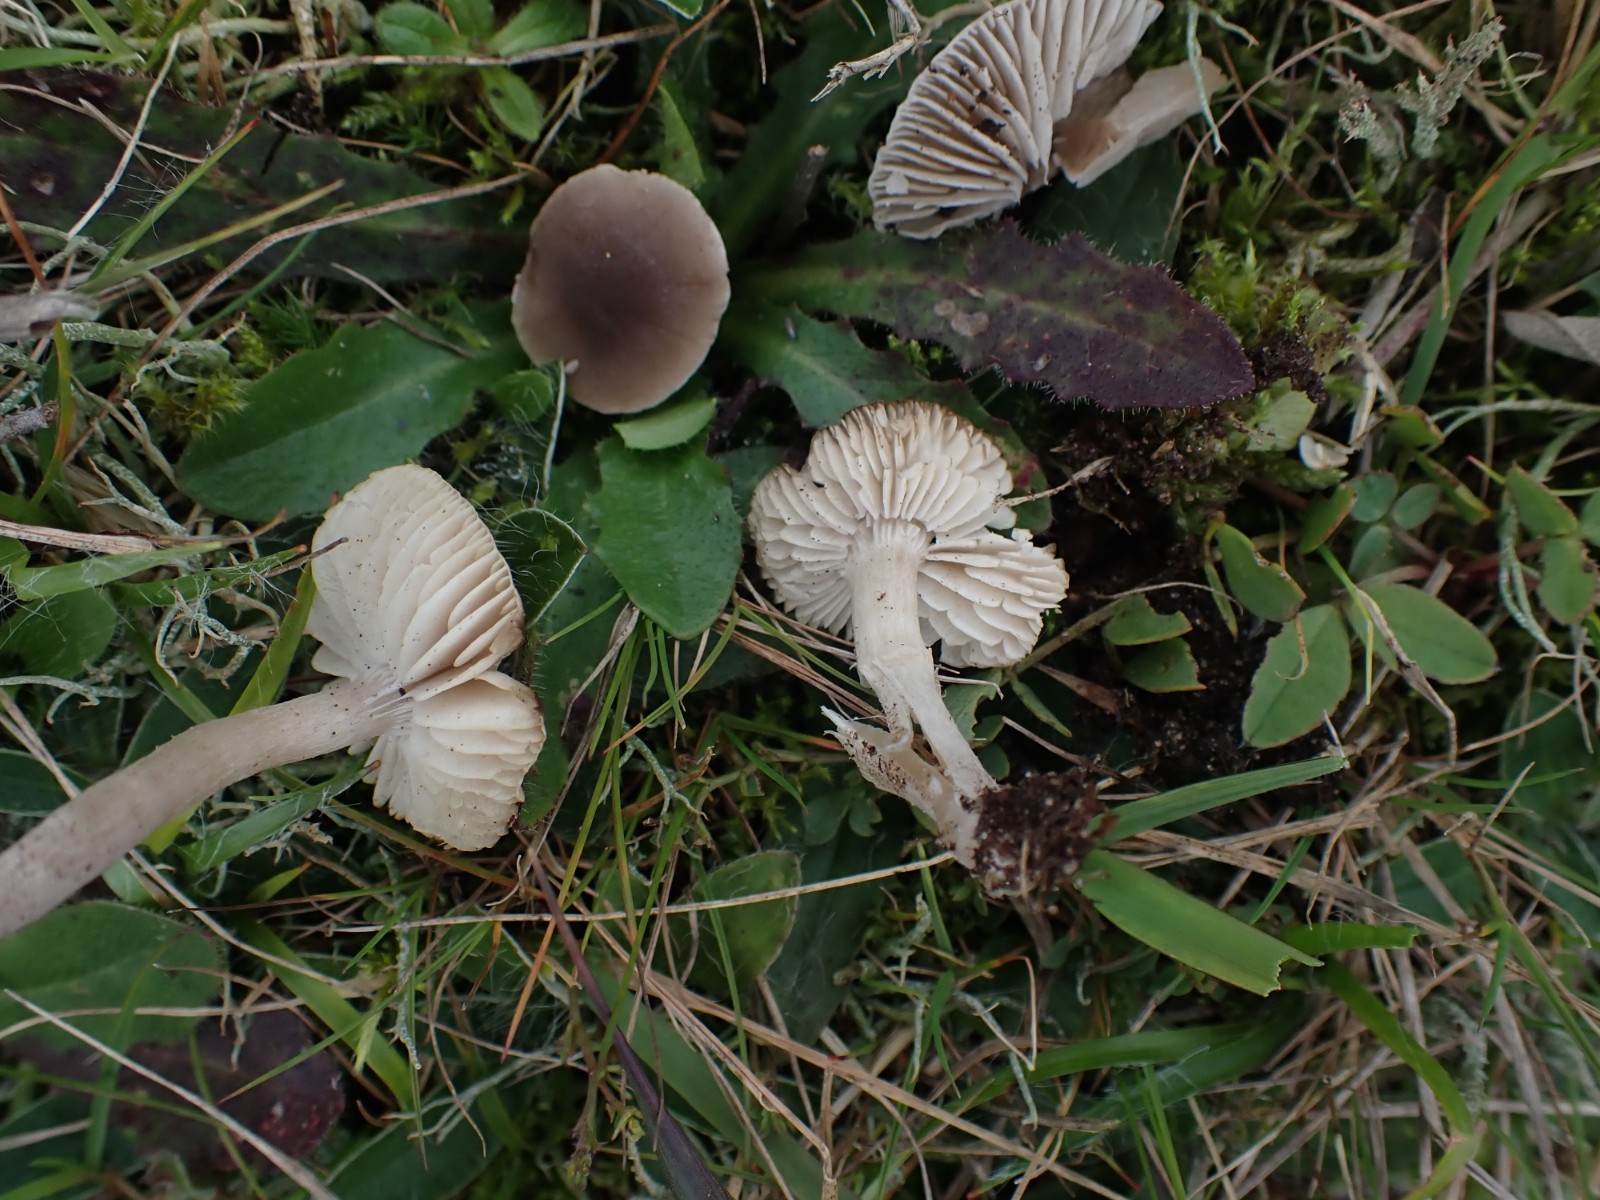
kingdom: Fungi
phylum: Basidiomycota
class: Agaricomycetes
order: Agaricales
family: Tricholomataceae
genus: Dermoloma
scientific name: Dermoloma cuneifolium
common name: eng-nonnehat
